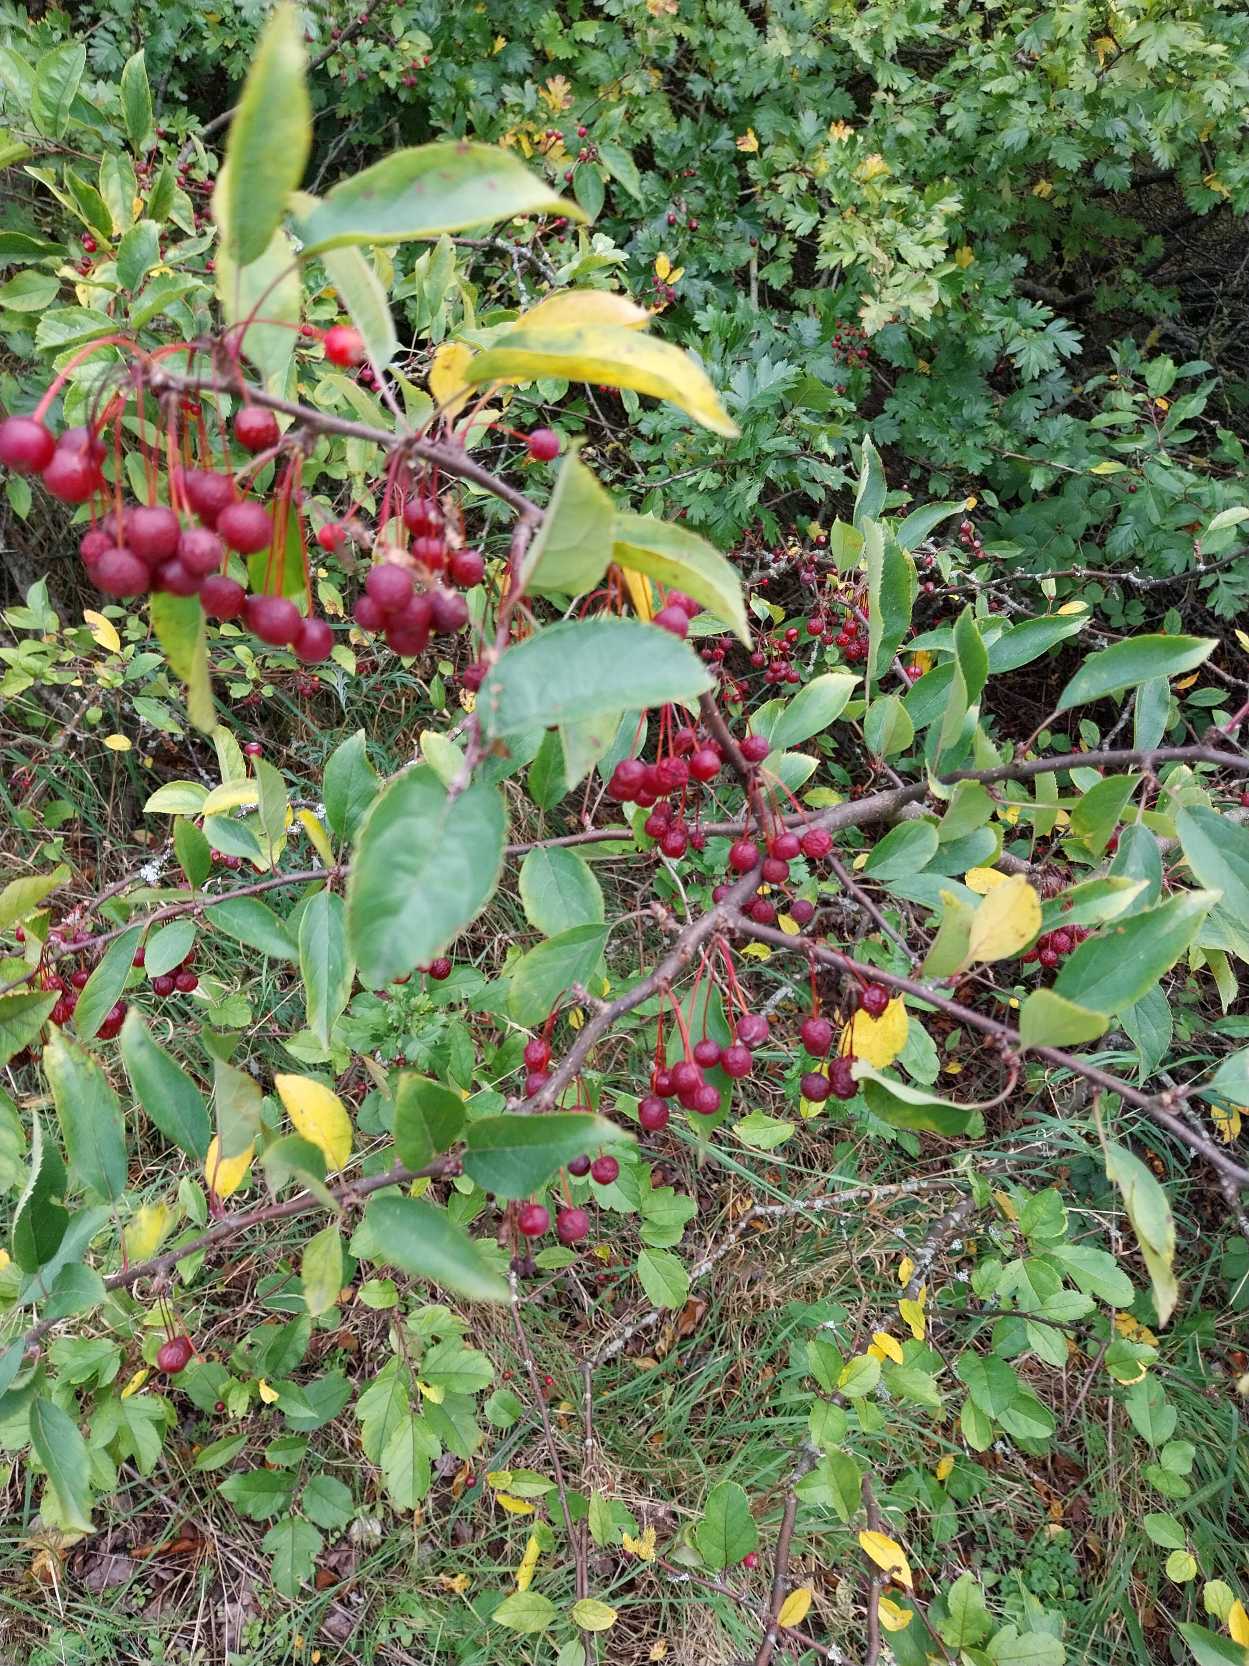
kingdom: Plantae
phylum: Tracheophyta
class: Magnoliopsida
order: Rosales
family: Rosaceae
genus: Malus
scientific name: Malus toringo
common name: Sargents-æble
